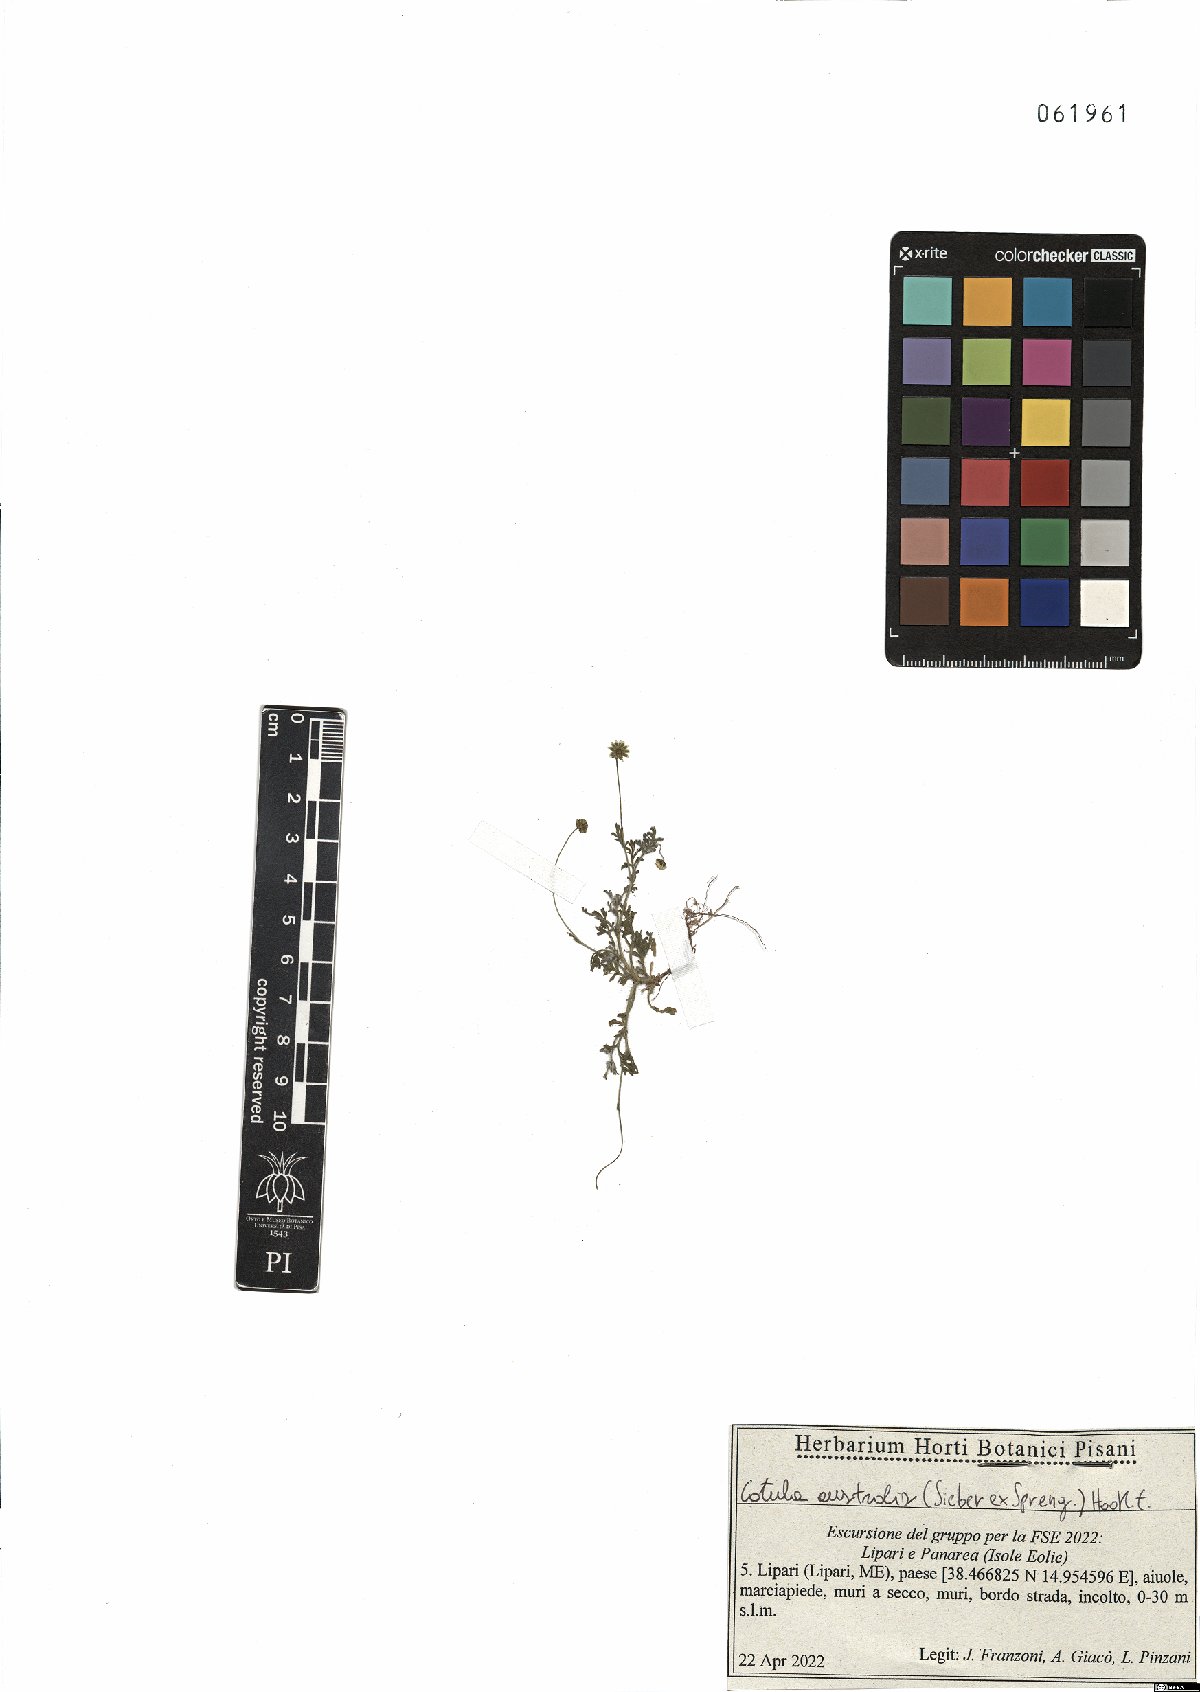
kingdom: Plantae
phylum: Tracheophyta
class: Magnoliopsida
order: Asterales
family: Asteraceae
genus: Cotula
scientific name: Cotula australis
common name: Australian waterbuttons
